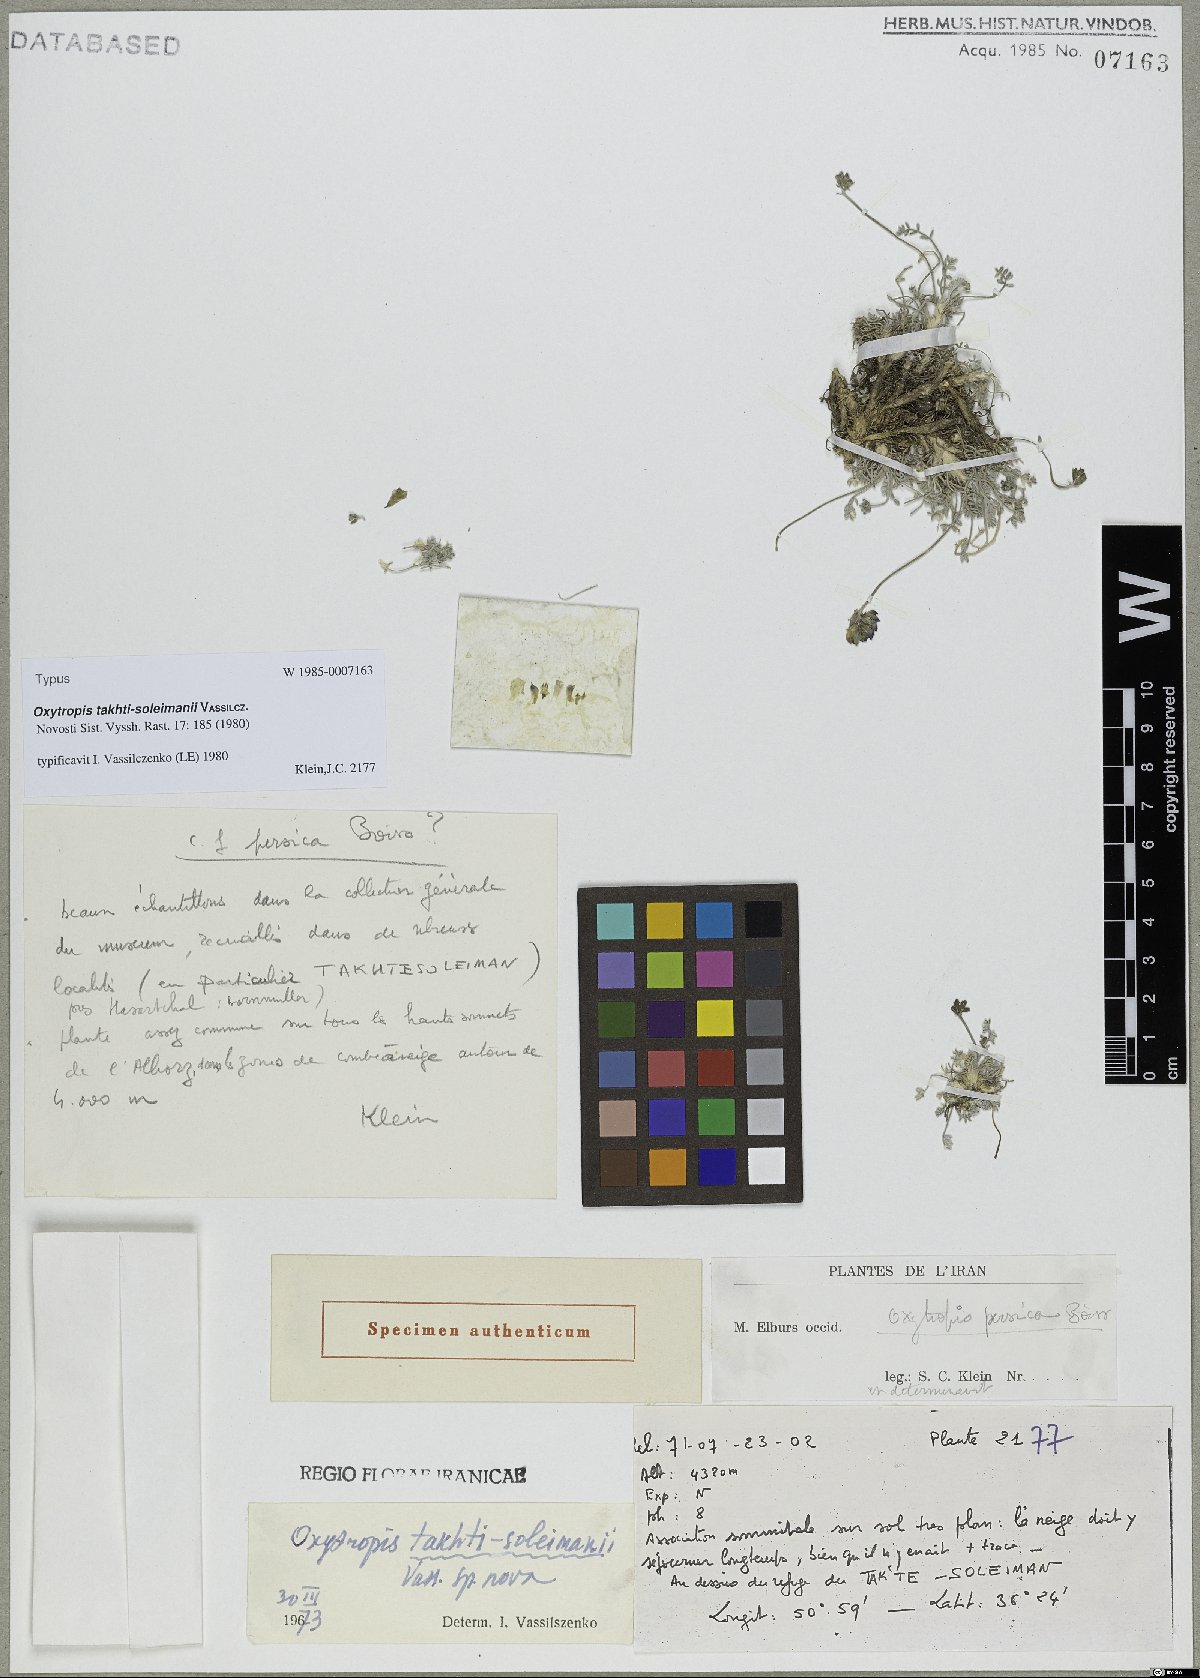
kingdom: Plantae
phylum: Tracheophyta
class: Magnoliopsida
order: Fabales
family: Fabaceae
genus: Oxytropis
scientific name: Oxytropis persica
